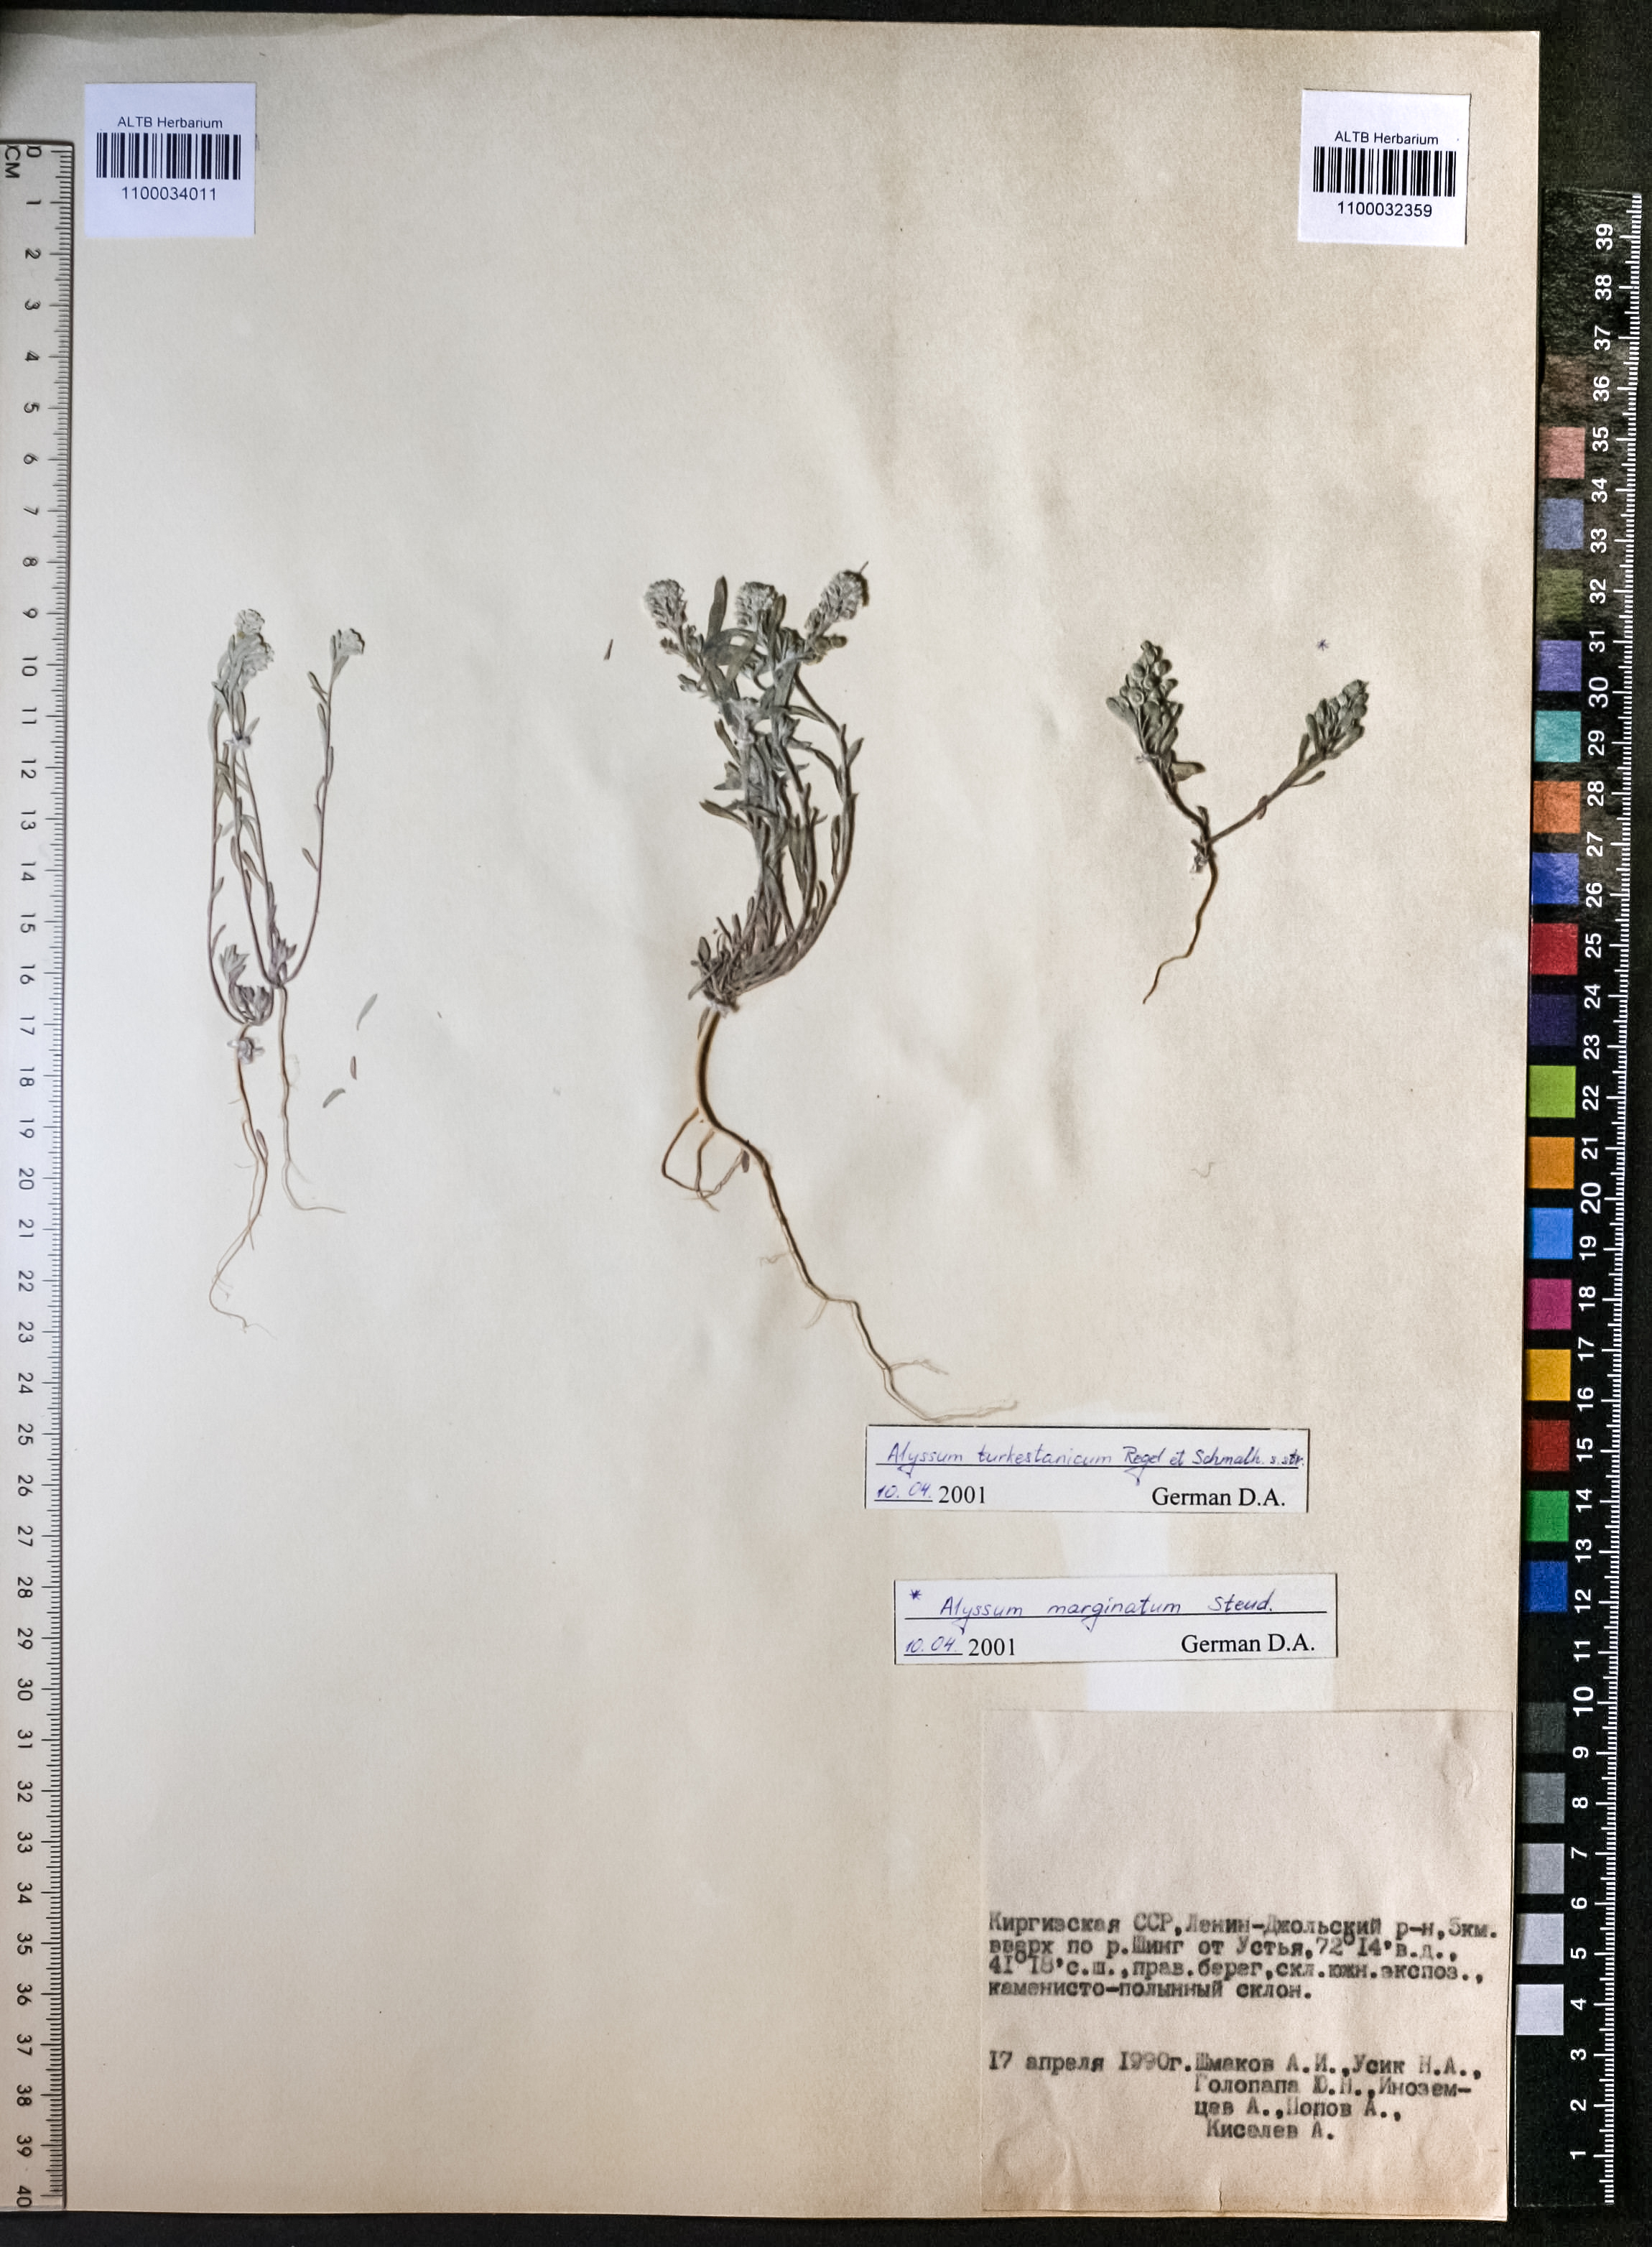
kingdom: Plantae
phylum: Tracheophyta
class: Magnoliopsida
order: Brassicales
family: Brassicaceae
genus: Alyssum
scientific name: Alyssum turkestanicum
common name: Desert alyssum
